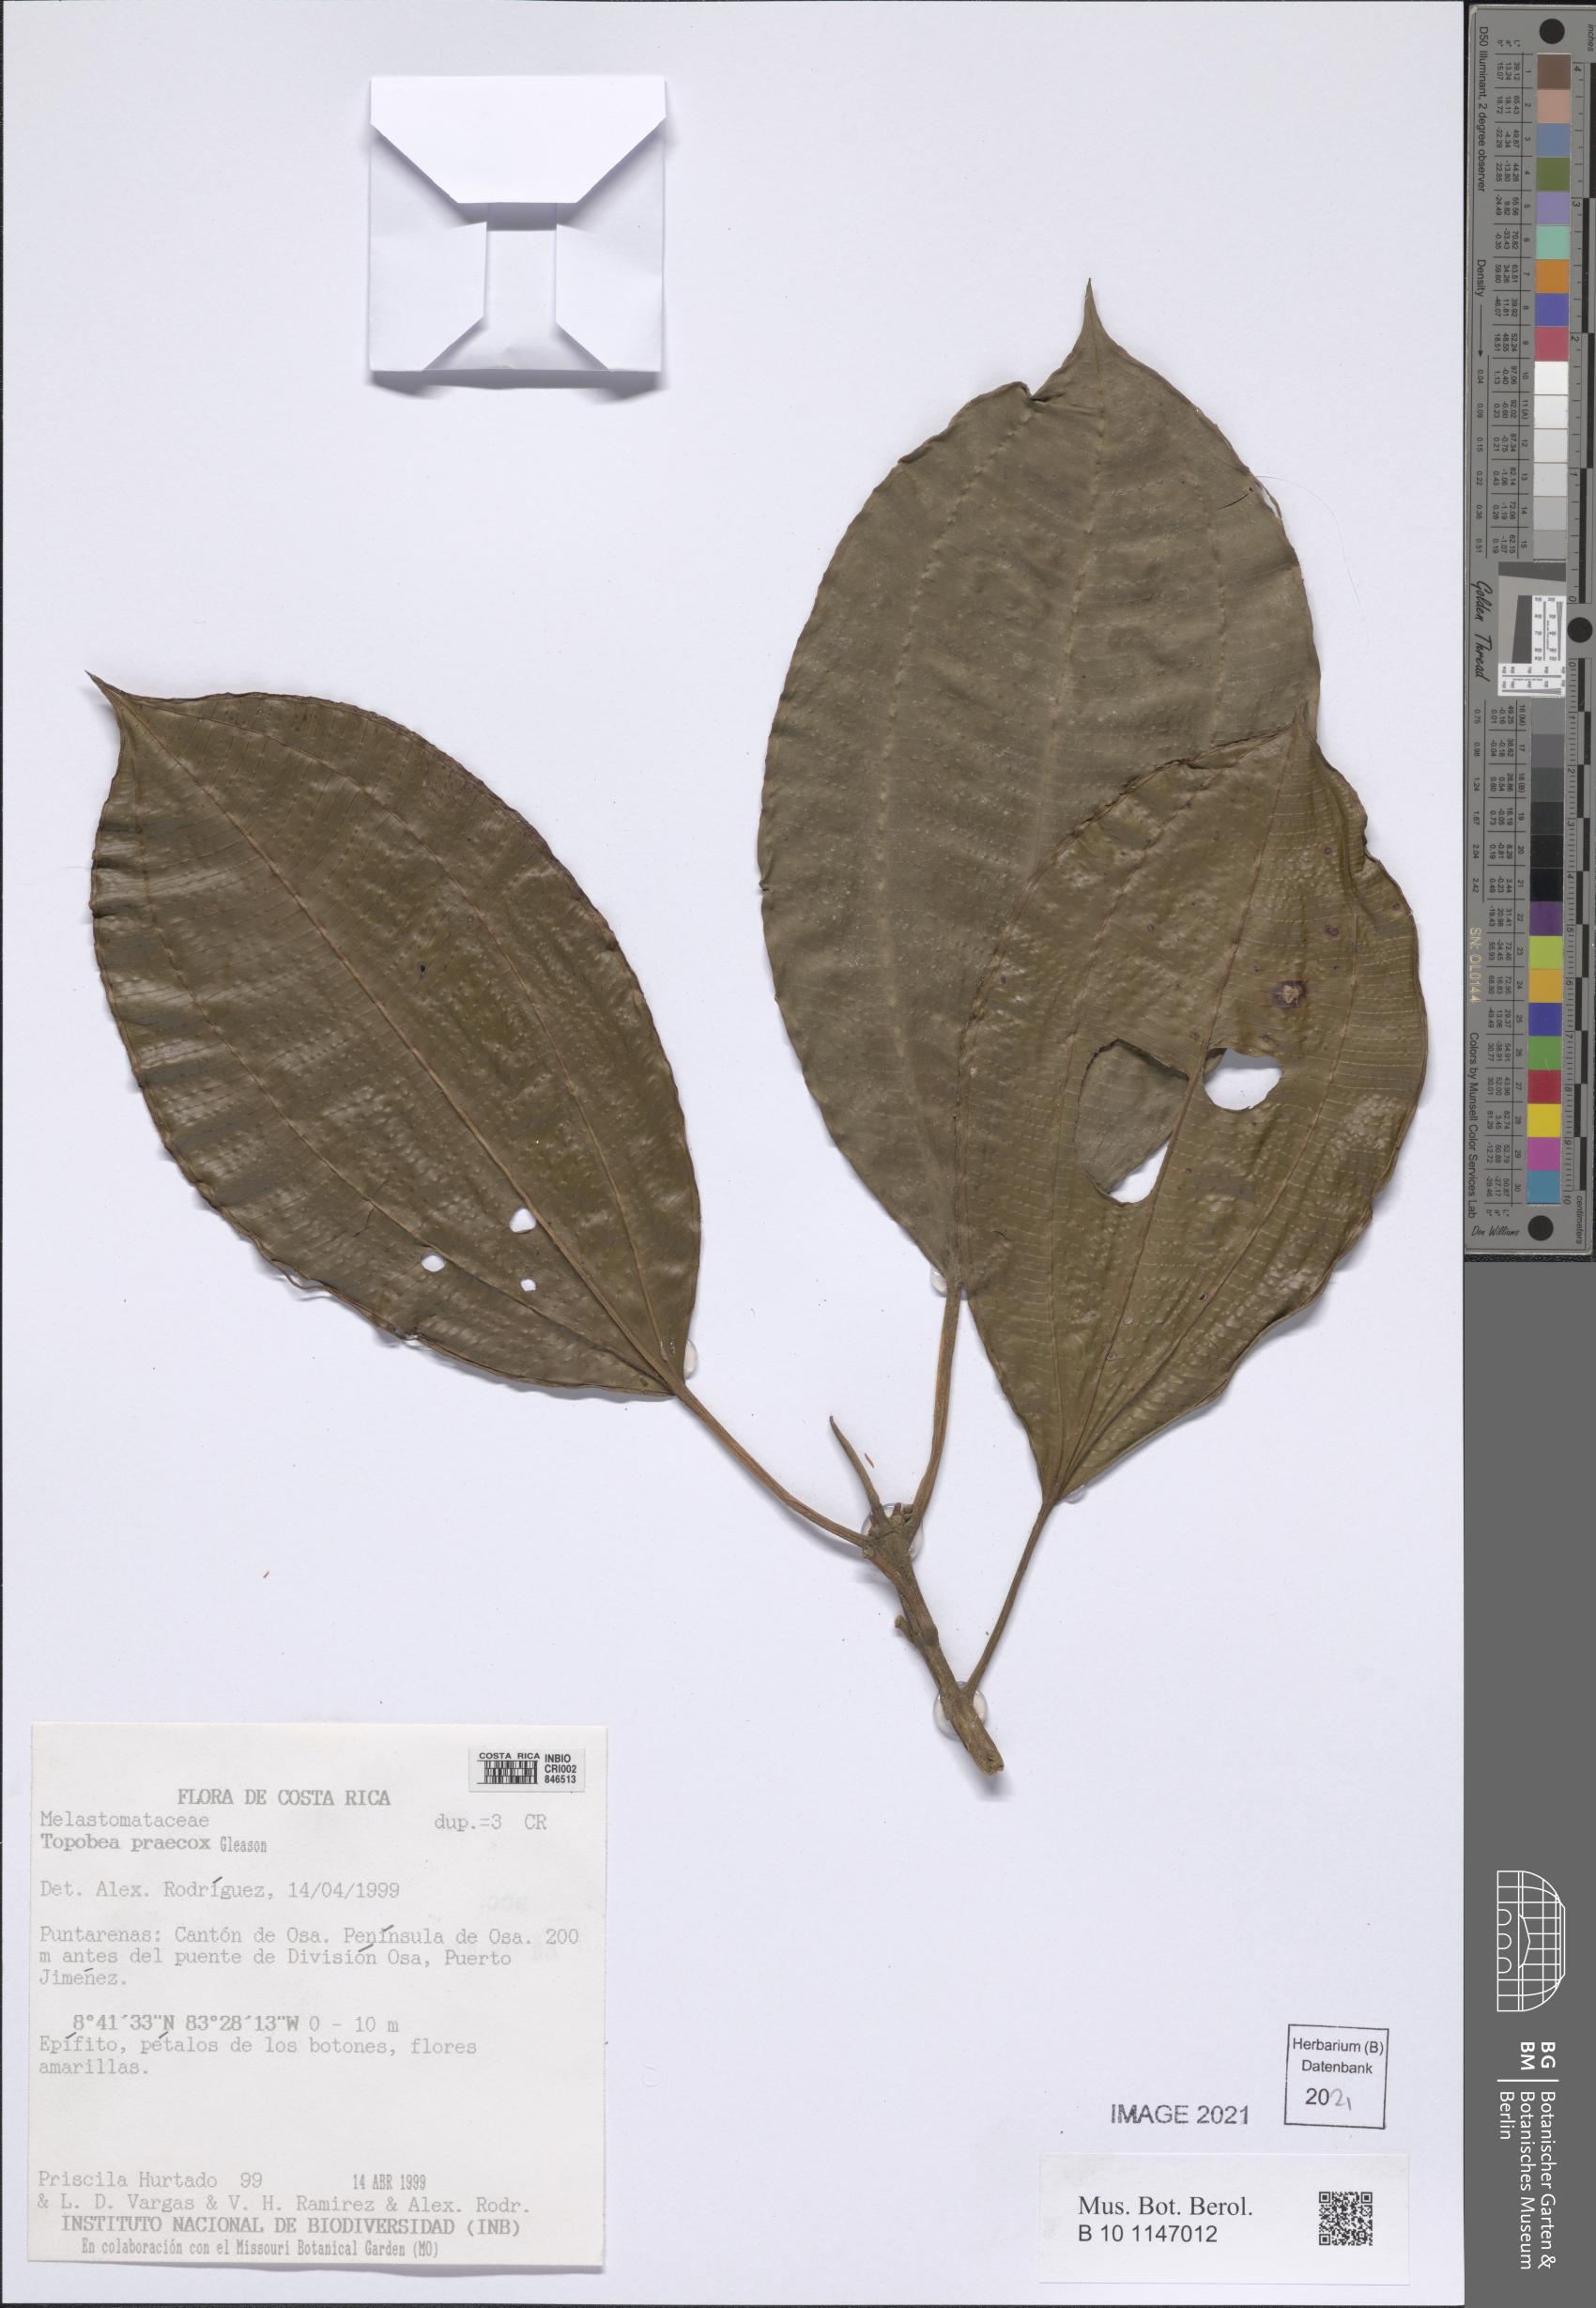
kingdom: Plantae
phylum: Tracheophyta
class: Magnoliopsida
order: Myrtales
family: Melastomataceae
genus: Blakea
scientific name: Blakea parasitica
